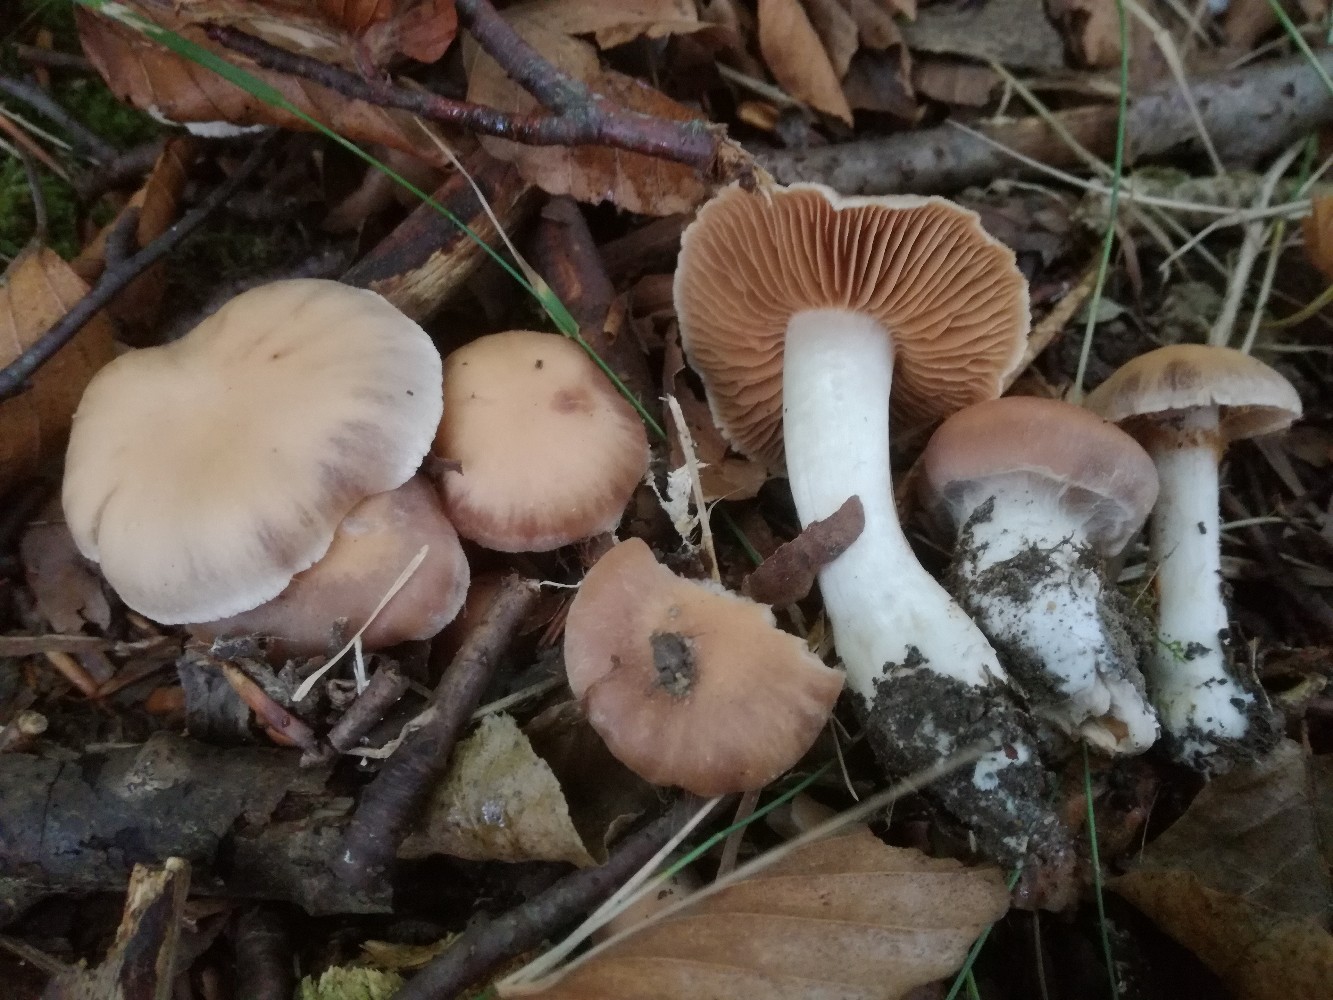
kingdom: Fungi
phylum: Basidiomycota
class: Agaricomycetes
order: Agaricales
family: Cortinariaceae
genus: Cortinarius
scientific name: Cortinarius spisnii
